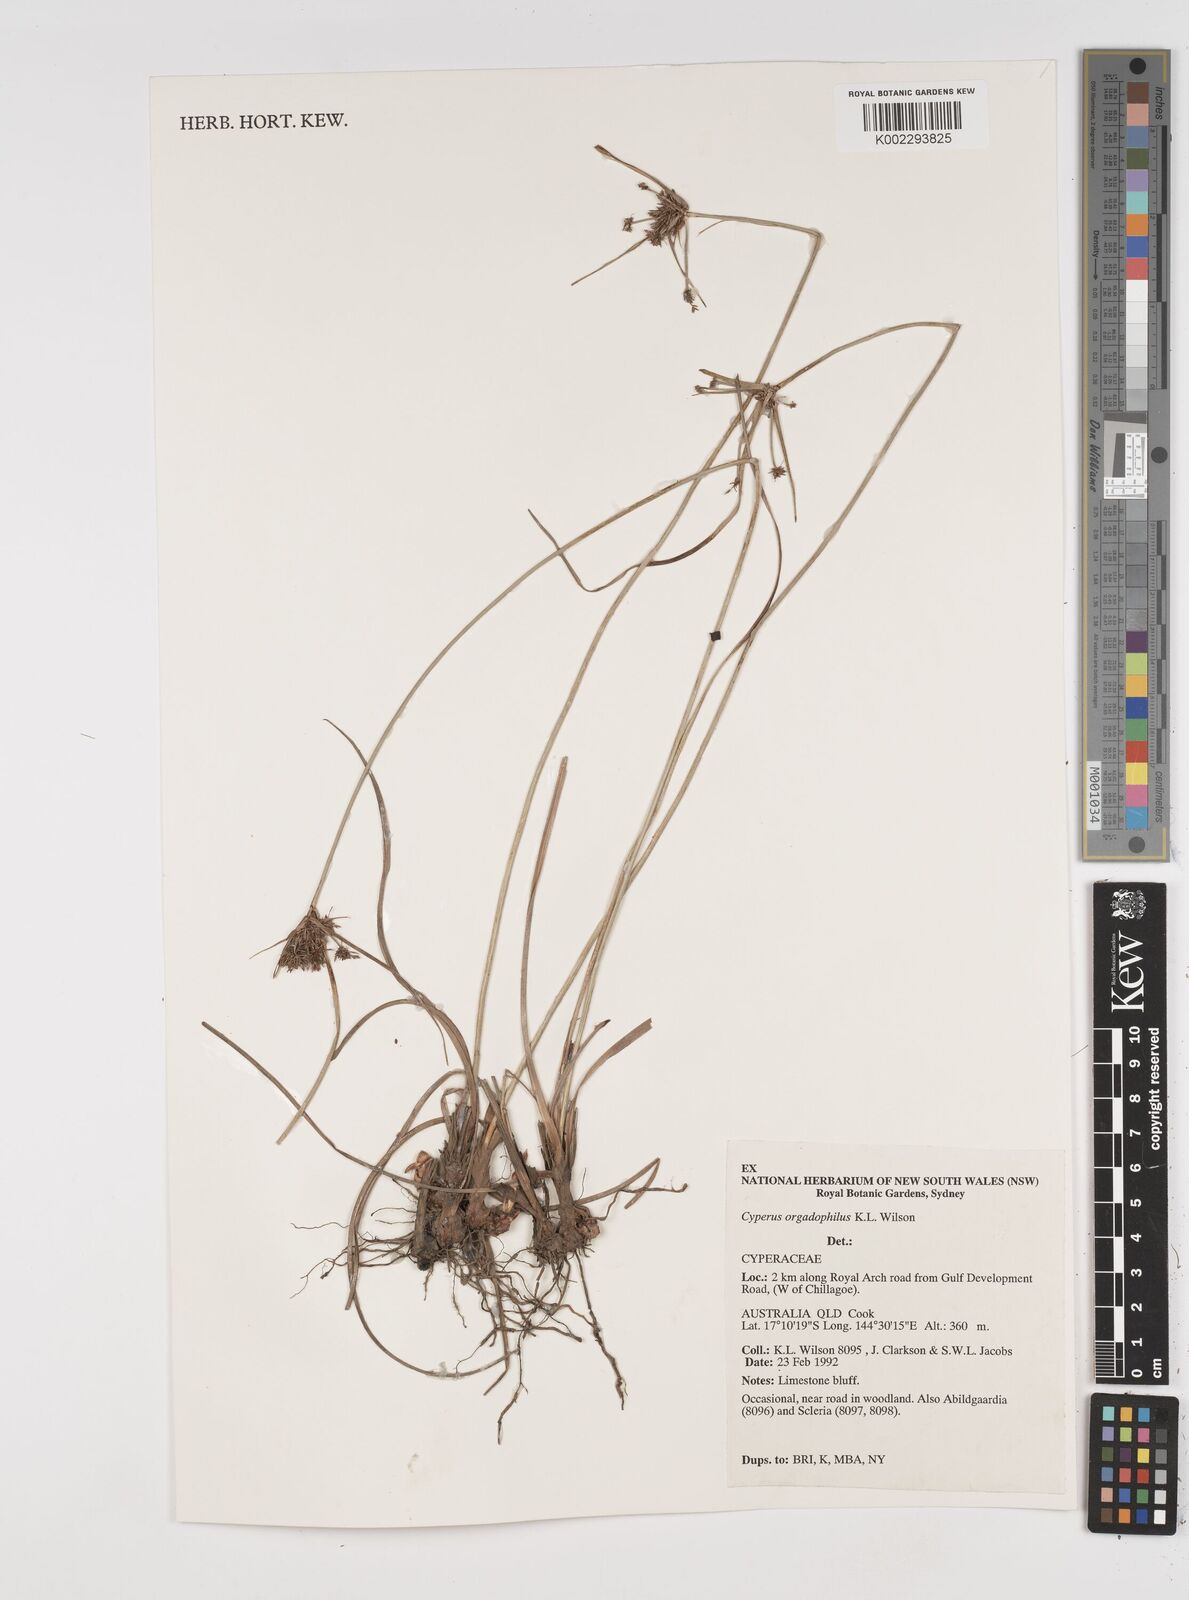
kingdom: Plantae
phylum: Tracheophyta
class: Liliopsida
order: Poales
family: Cyperaceae
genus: Cyperus
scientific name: Cyperus orgadophilus
